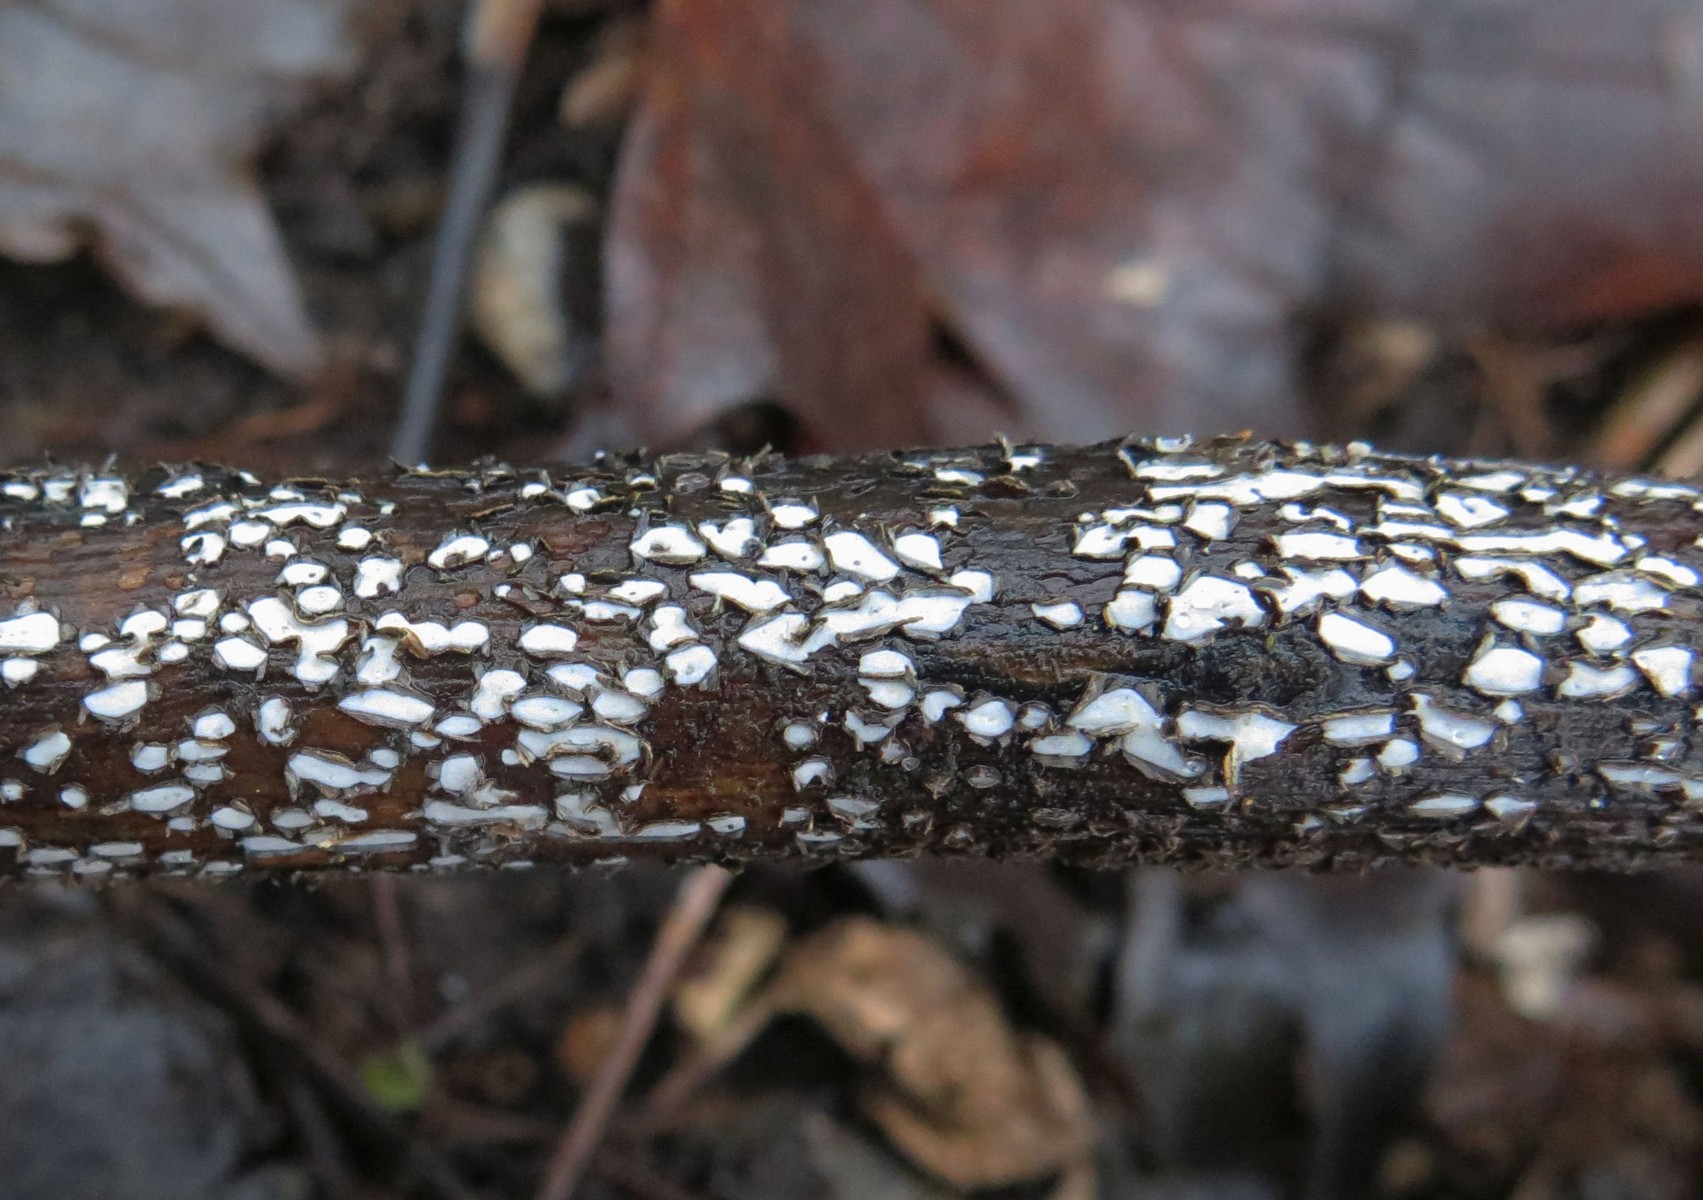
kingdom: Fungi
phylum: Ascomycota
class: Leotiomycetes
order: Chaetomellales
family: Marthamycetaceae
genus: Propolis
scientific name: Propolis farinosa
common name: almindelig vedsprængerskive
